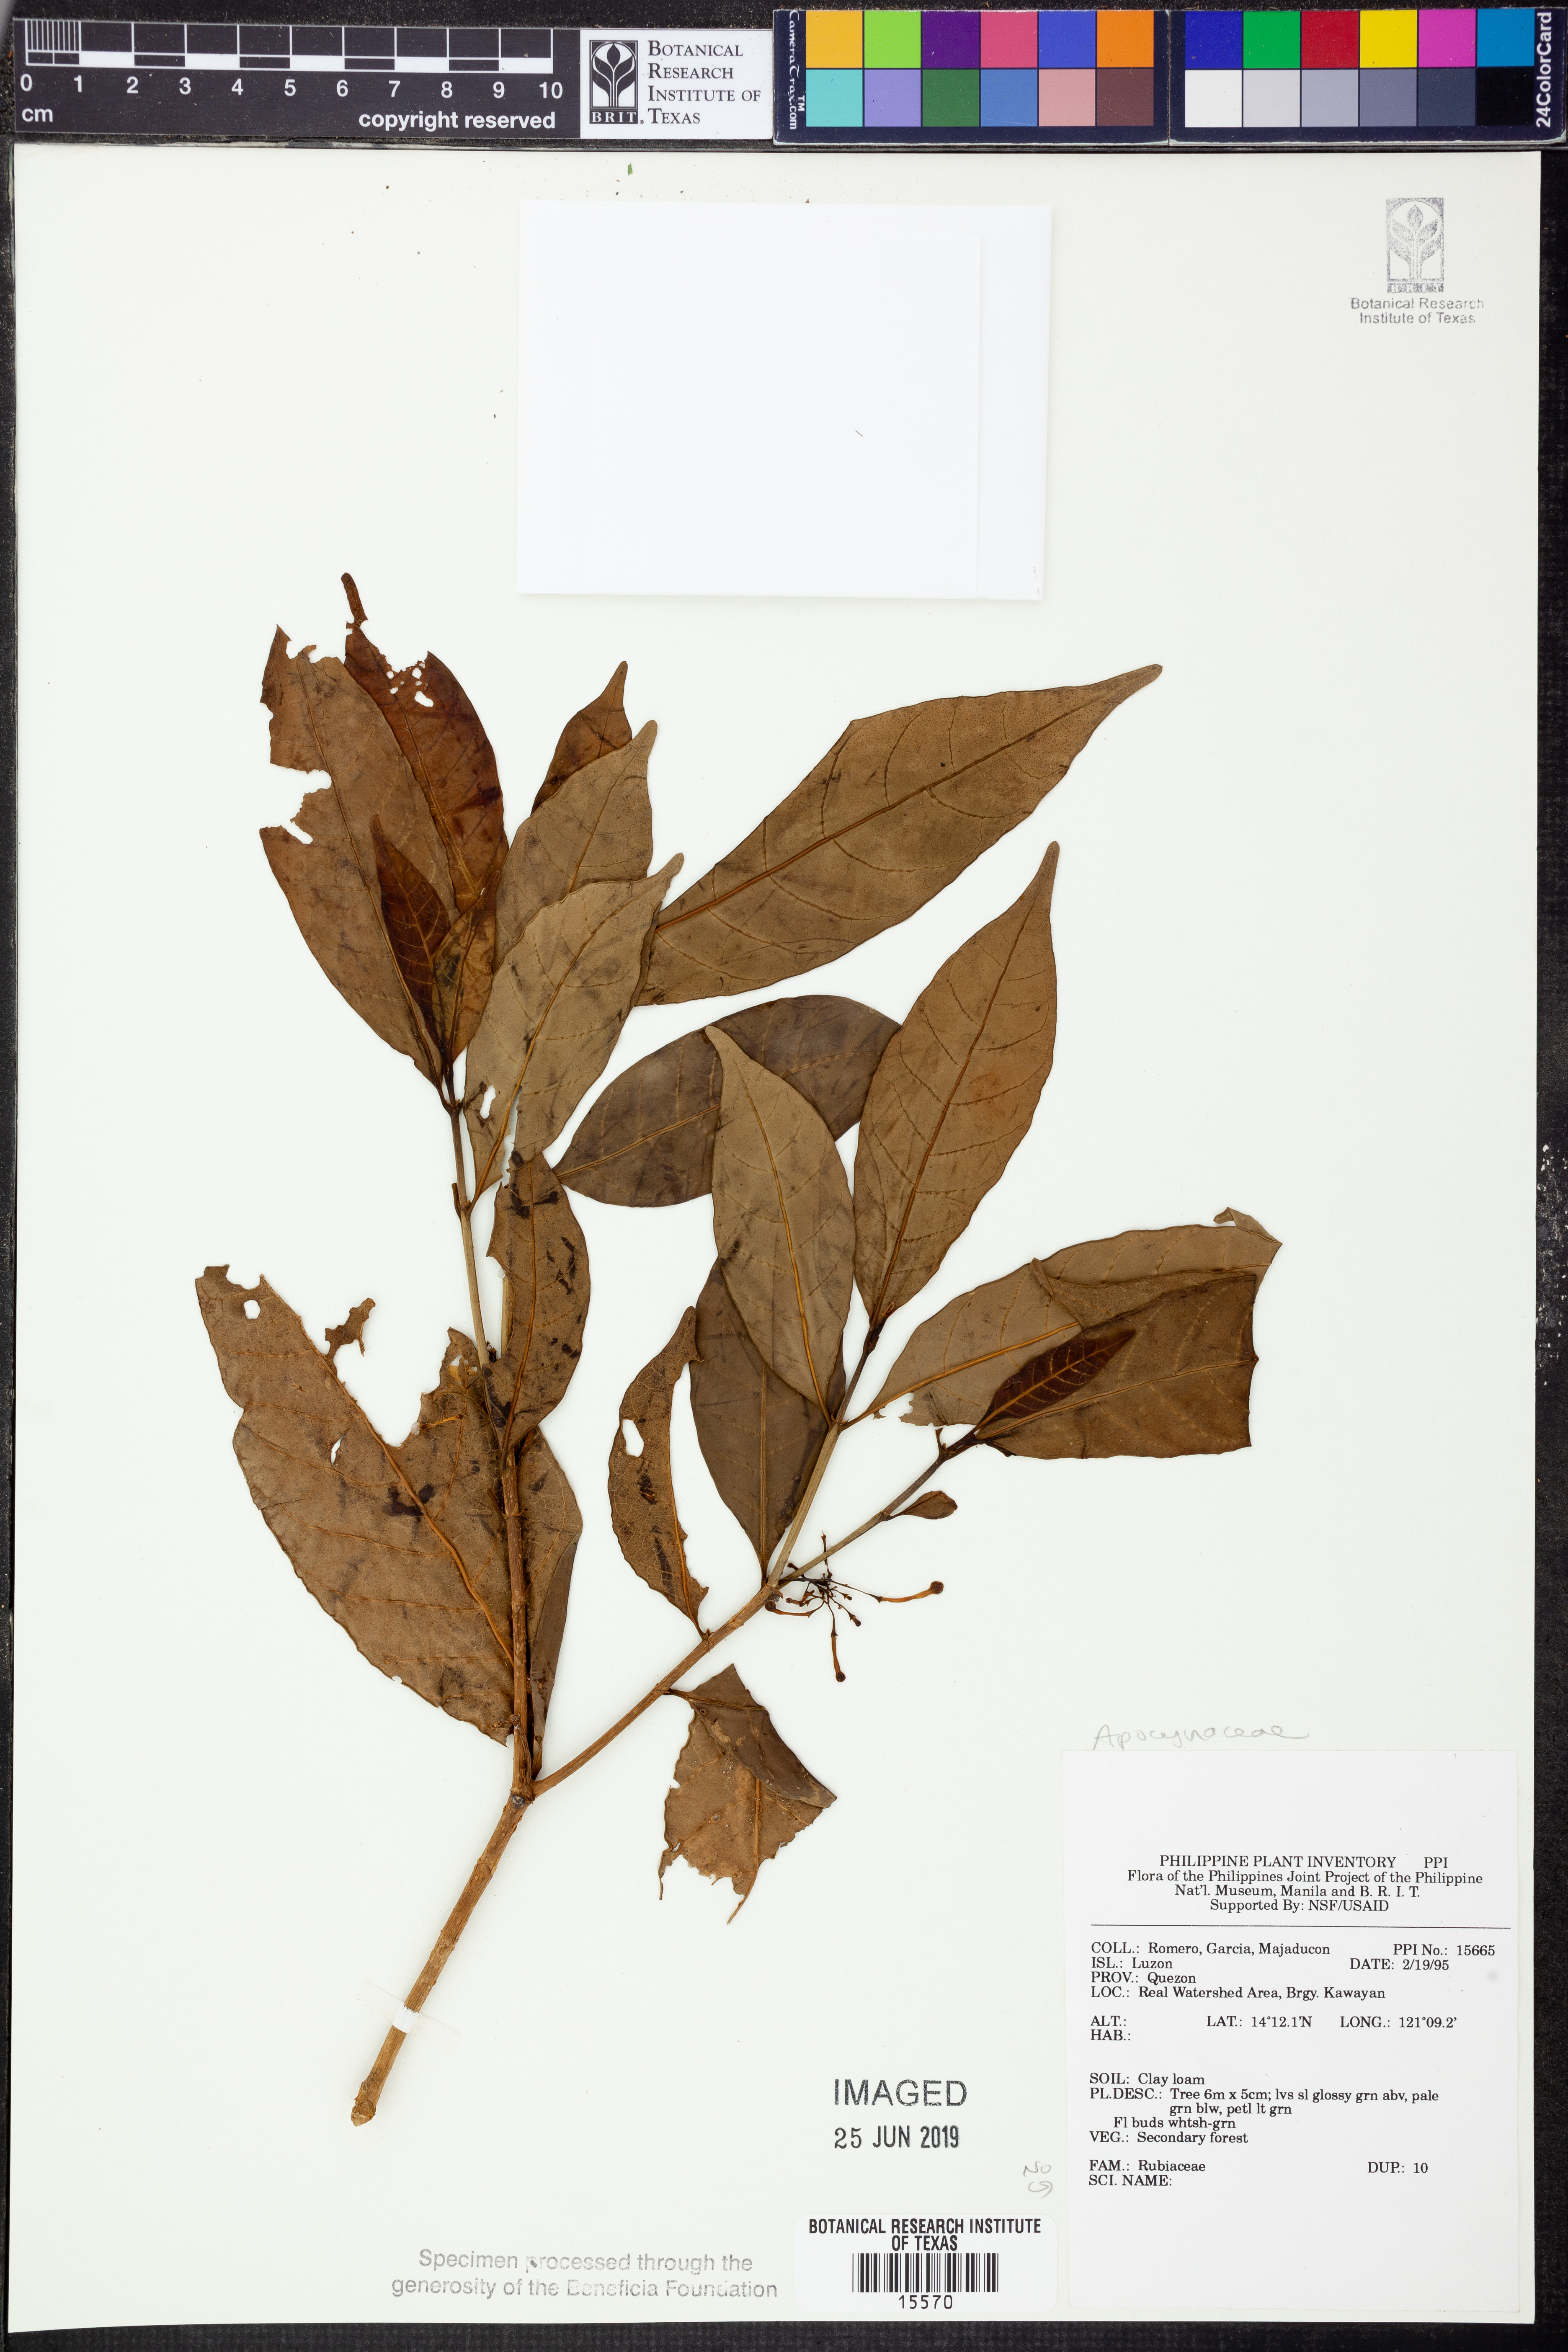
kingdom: Plantae
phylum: Tracheophyta
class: Magnoliopsida
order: Gentianales
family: Apocynaceae
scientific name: Apocynaceae
